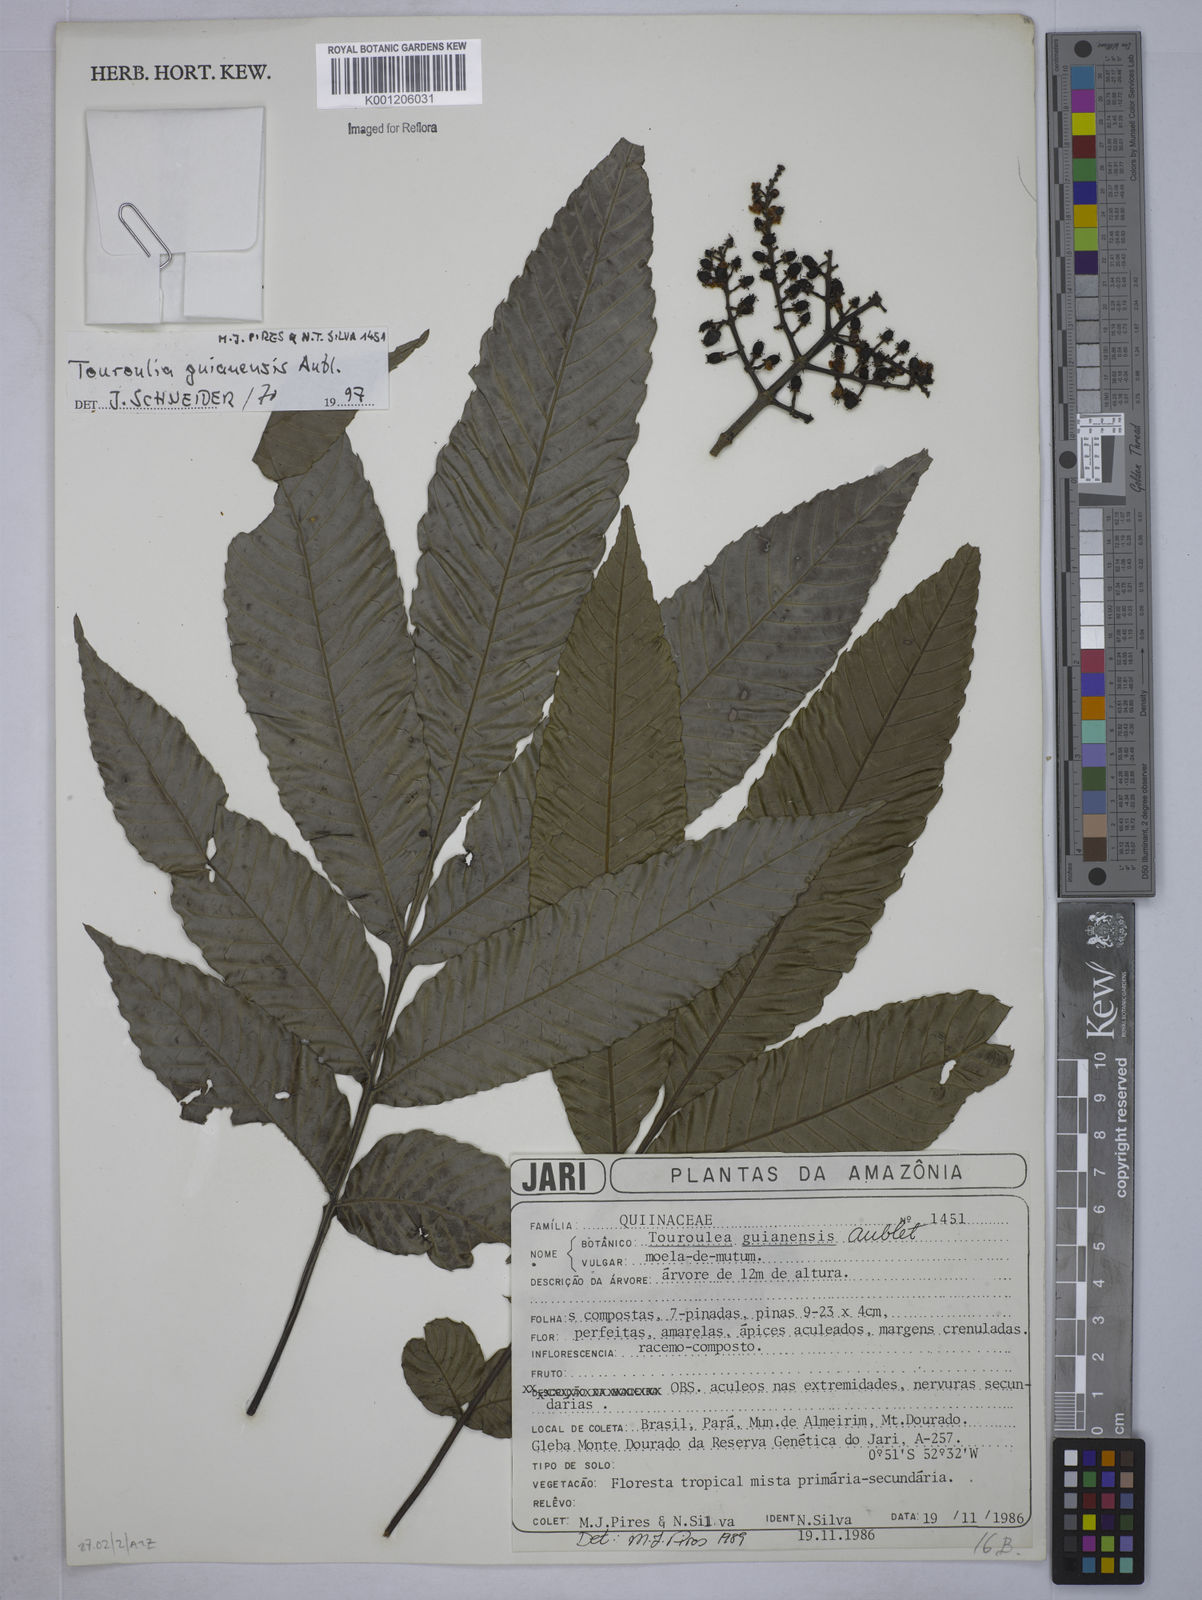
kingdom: Plantae
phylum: Tracheophyta
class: Magnoliopsida
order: Malpighiales
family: Quiinaceae
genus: Touroulia
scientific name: Touroulia guianensis
